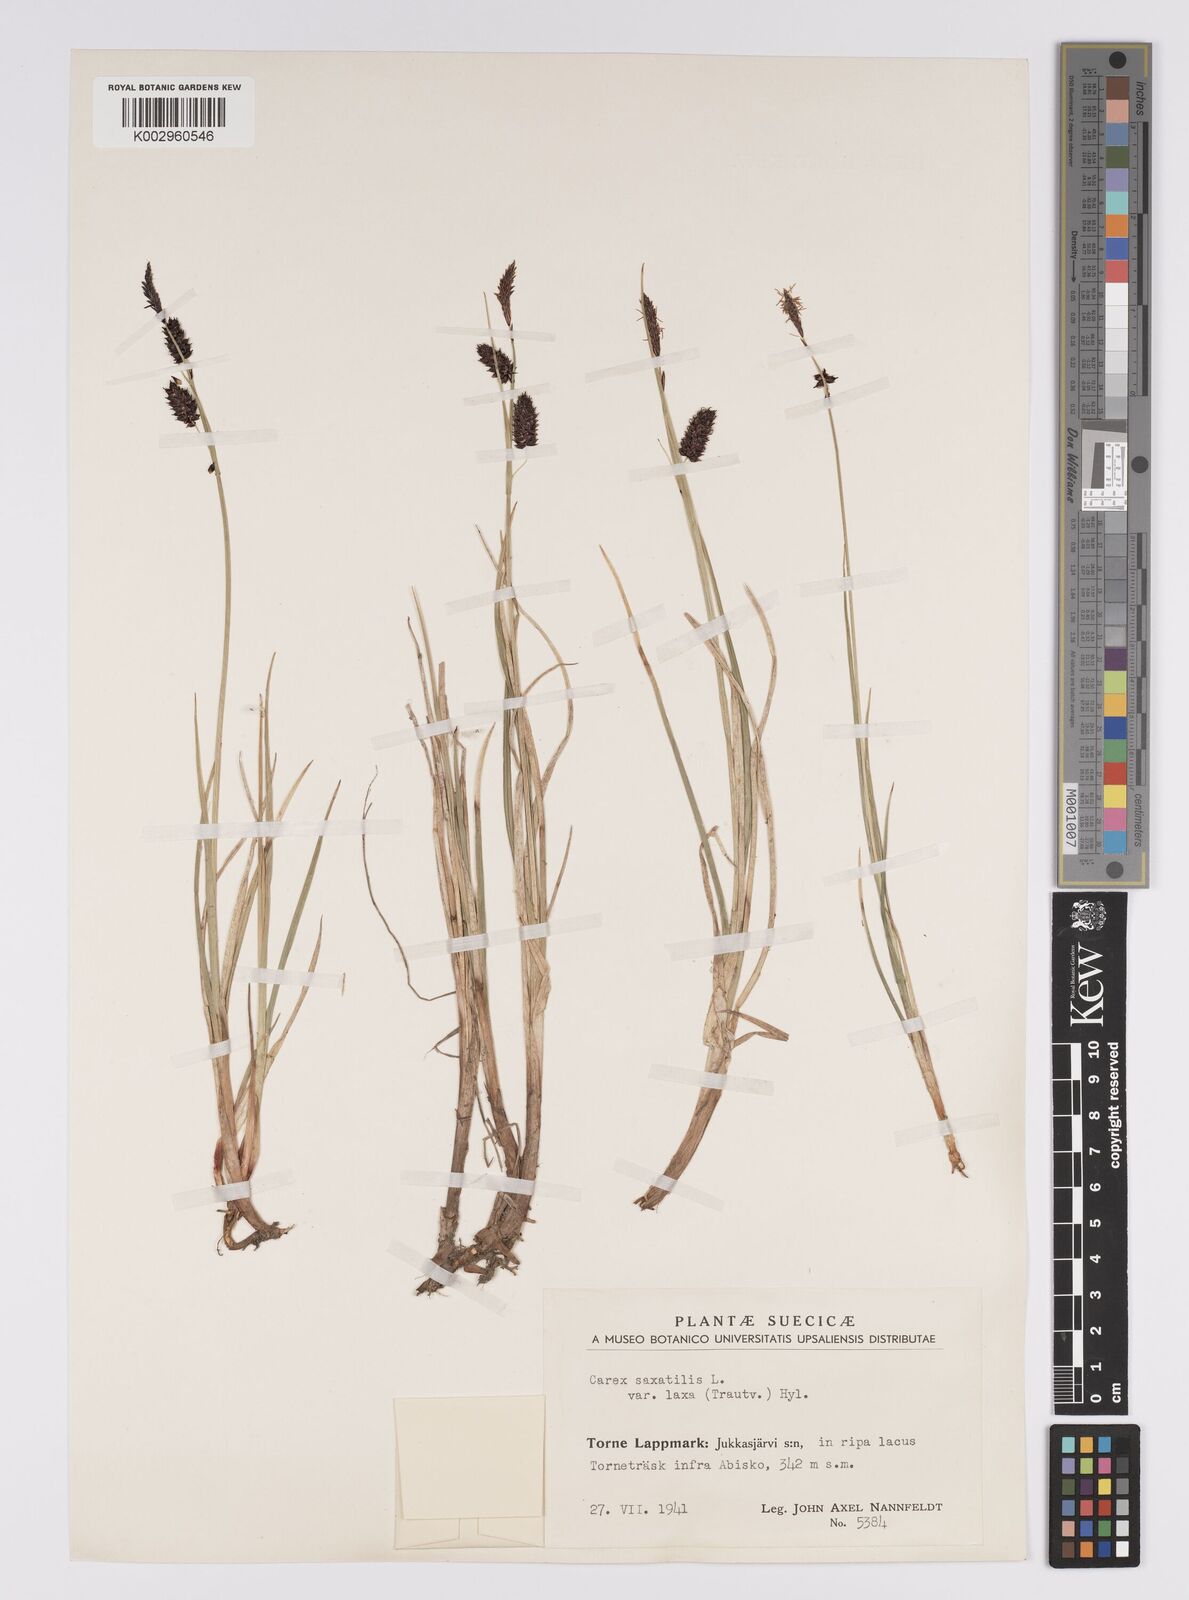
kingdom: Plantae
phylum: Tracheophyta
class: Liliopsida
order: Poales
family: Cyperaceae
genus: Carex
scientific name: Carex saxatilis
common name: Russet sedge
